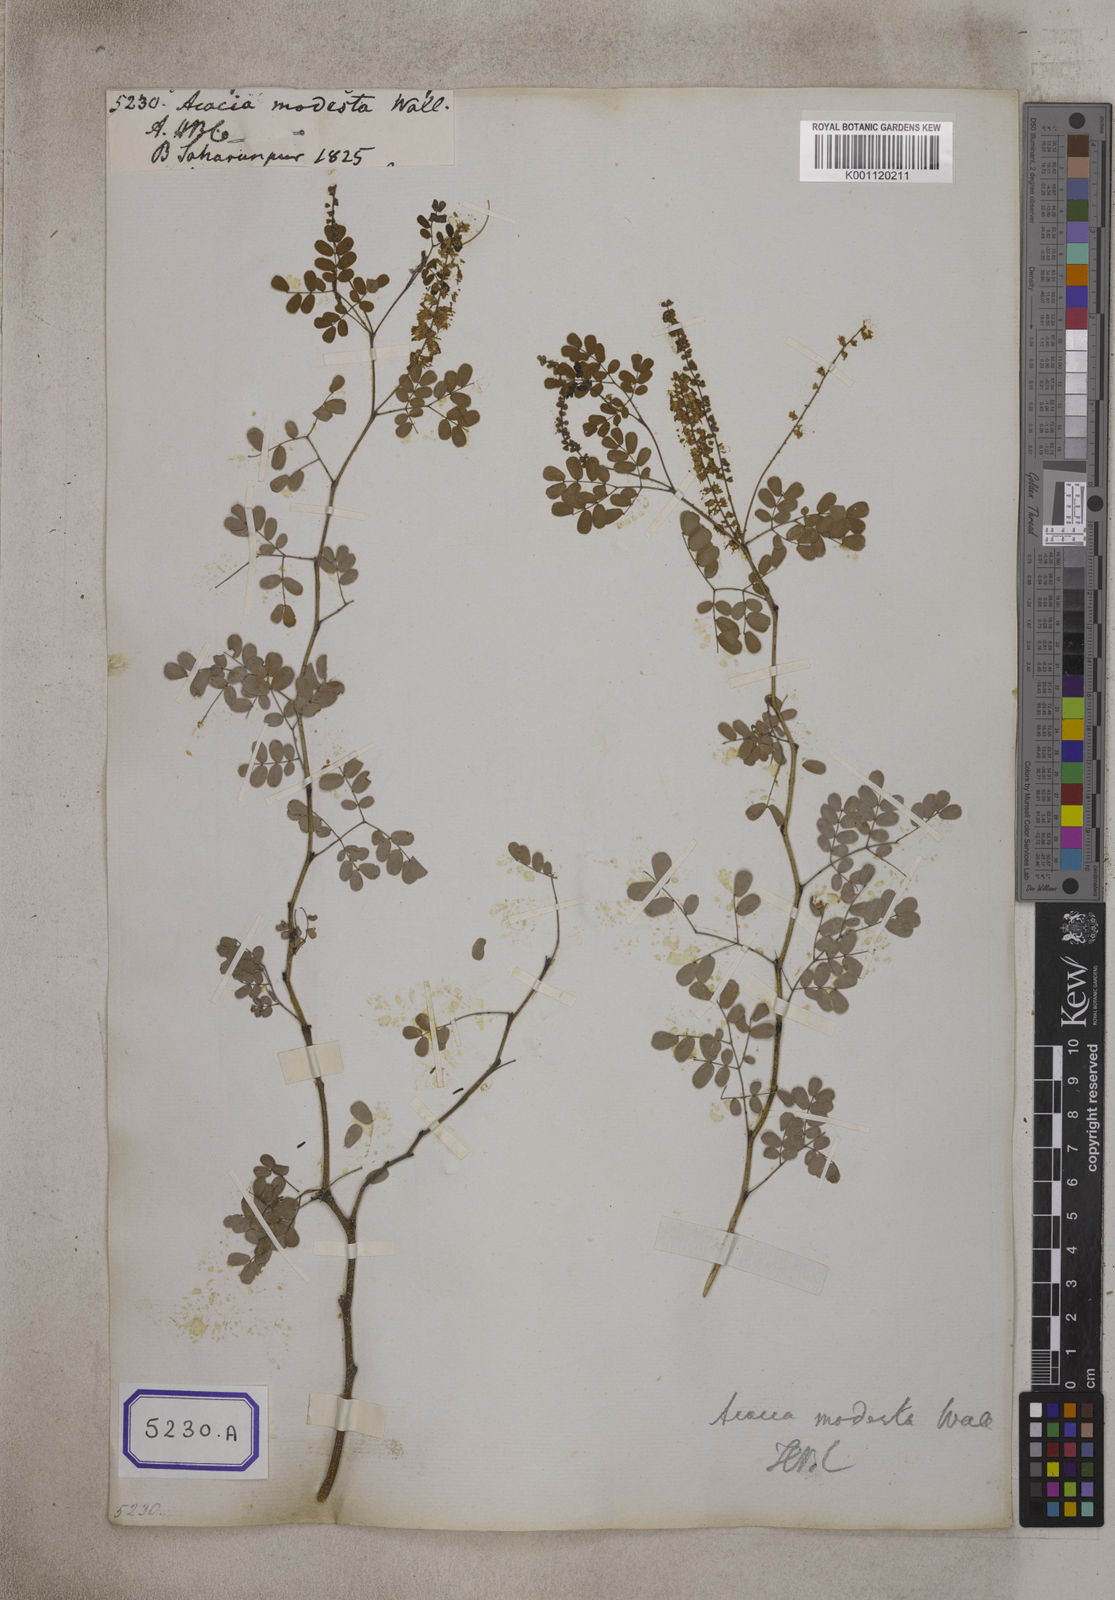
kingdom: Plantae
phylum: Tracheophyta
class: Magnoliopsida
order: Fabales
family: Fabaceae
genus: Senegalia
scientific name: Senegalia modesta
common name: Amritsar-gum
